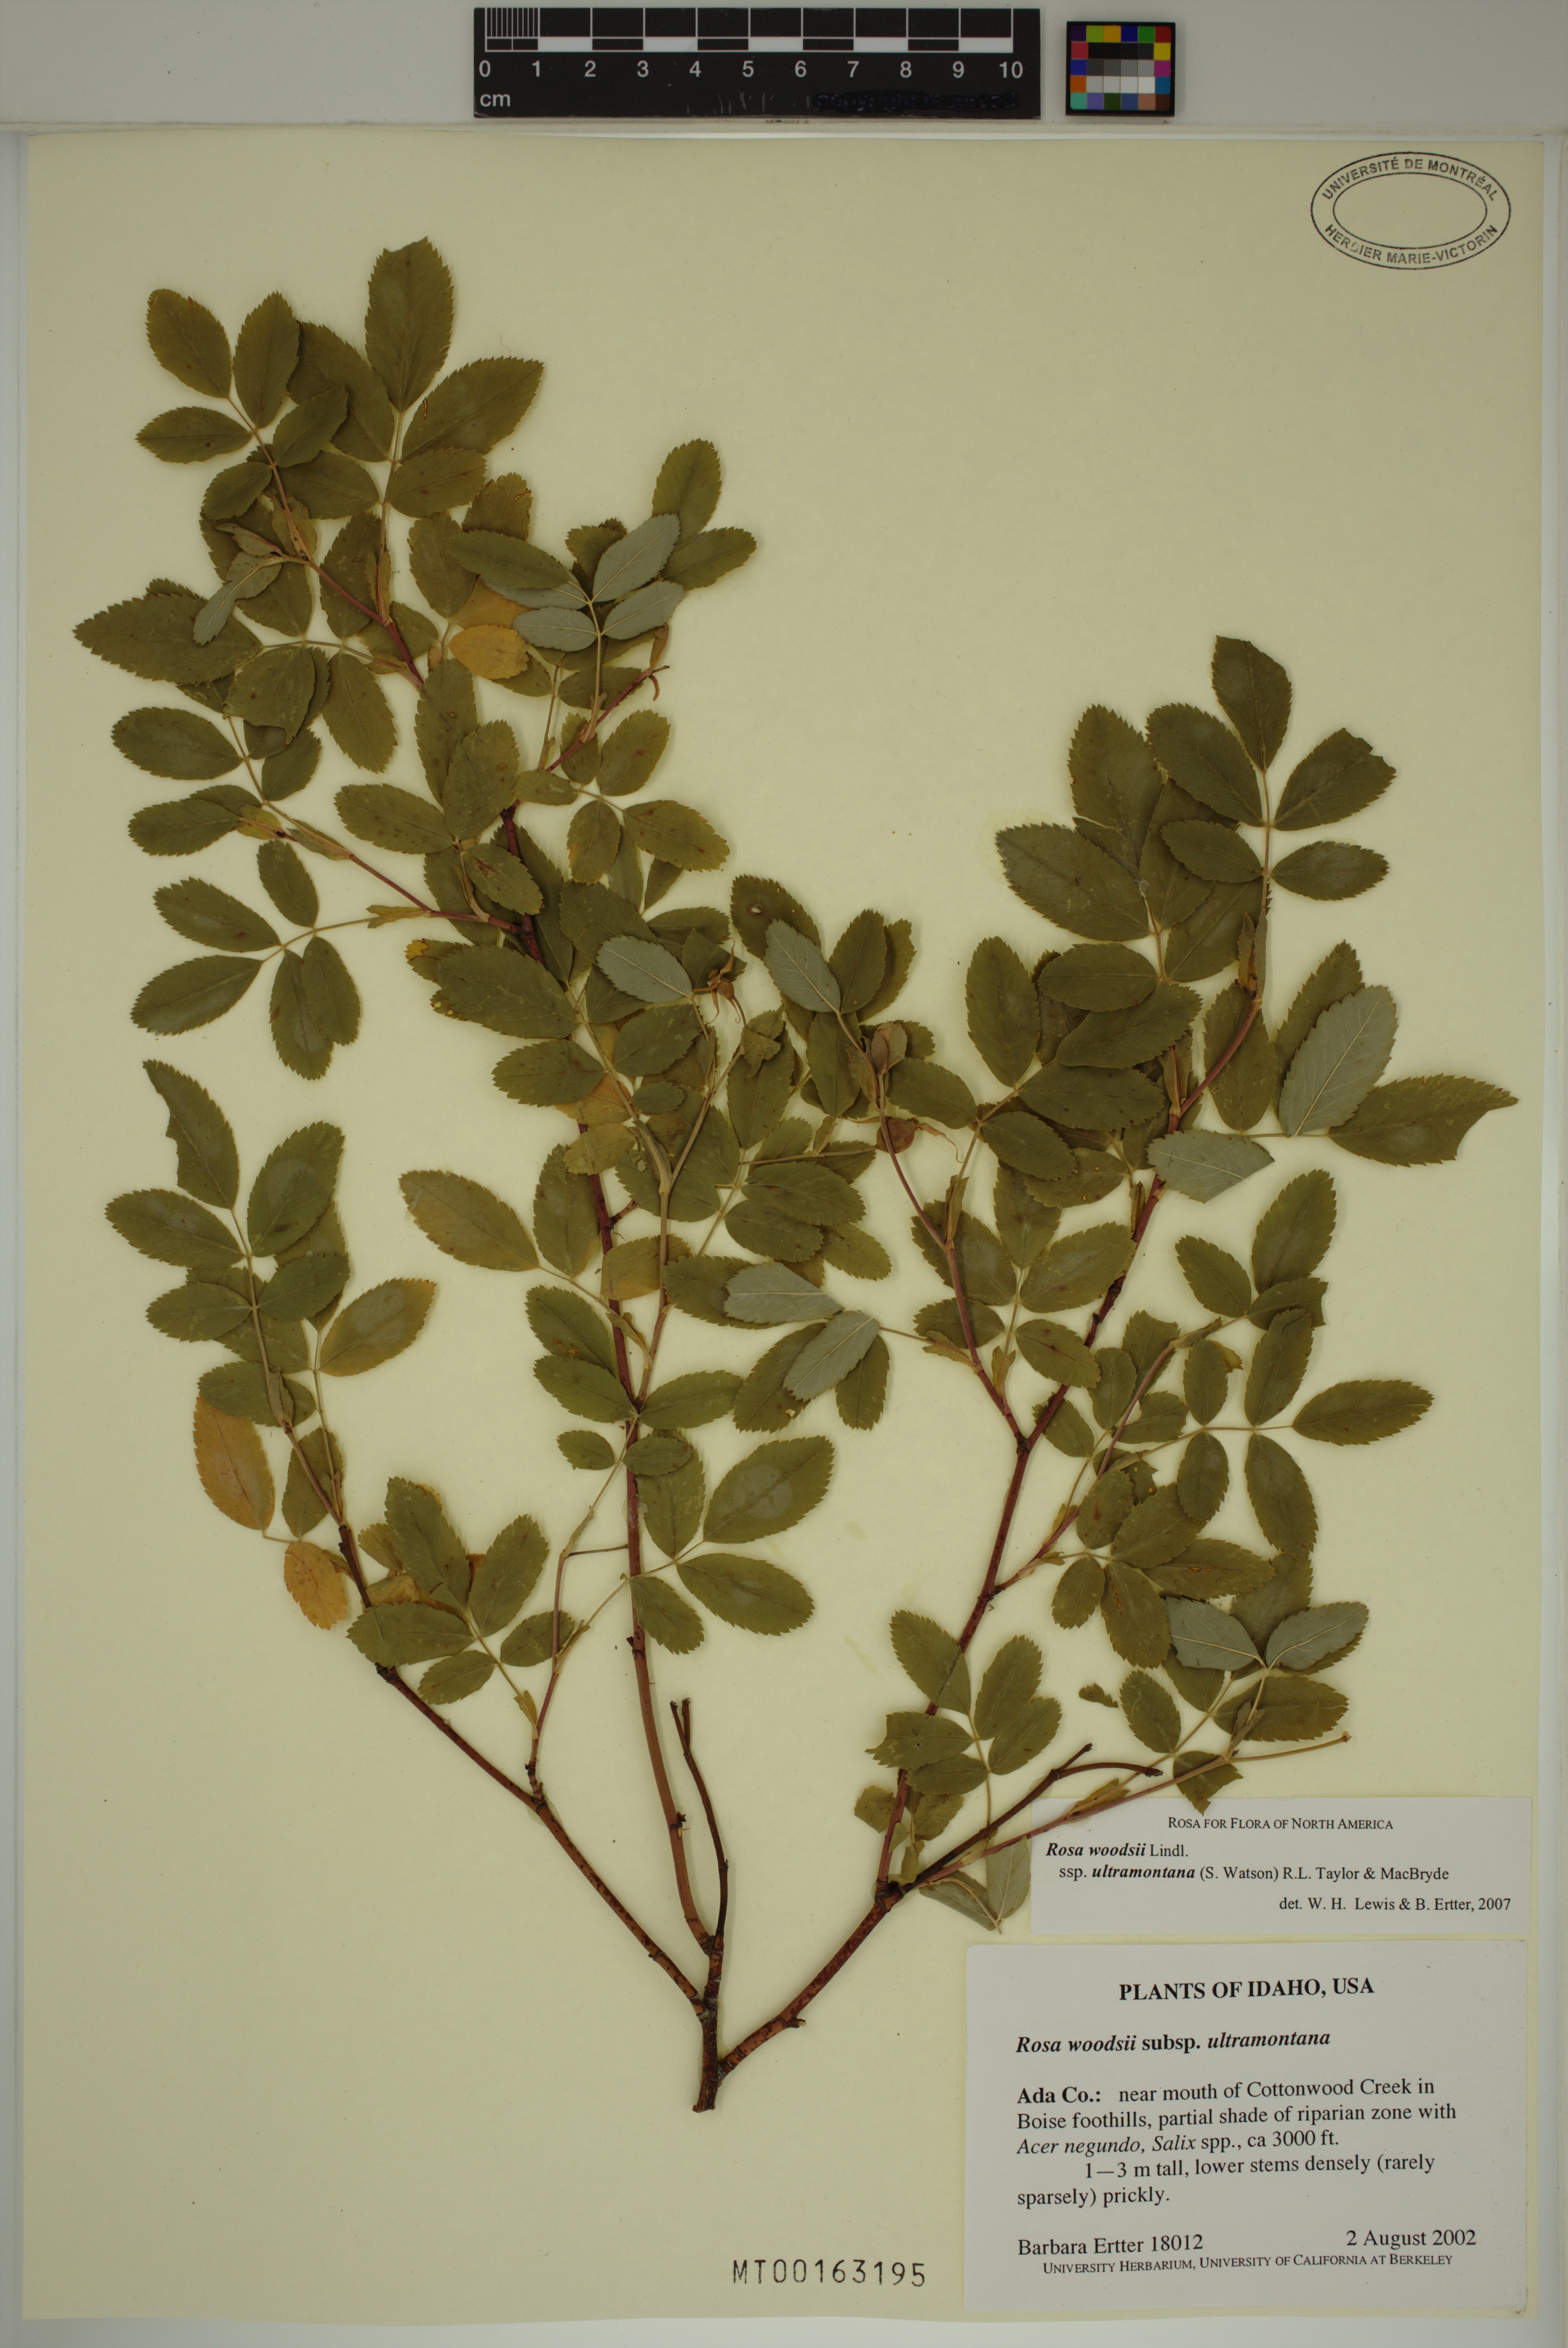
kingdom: Plantae
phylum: Tracheophyta
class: Magnoliopsida
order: Rosales
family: Rosaceae
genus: Rosa
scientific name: Rosa woodsii
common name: Woods's rose
